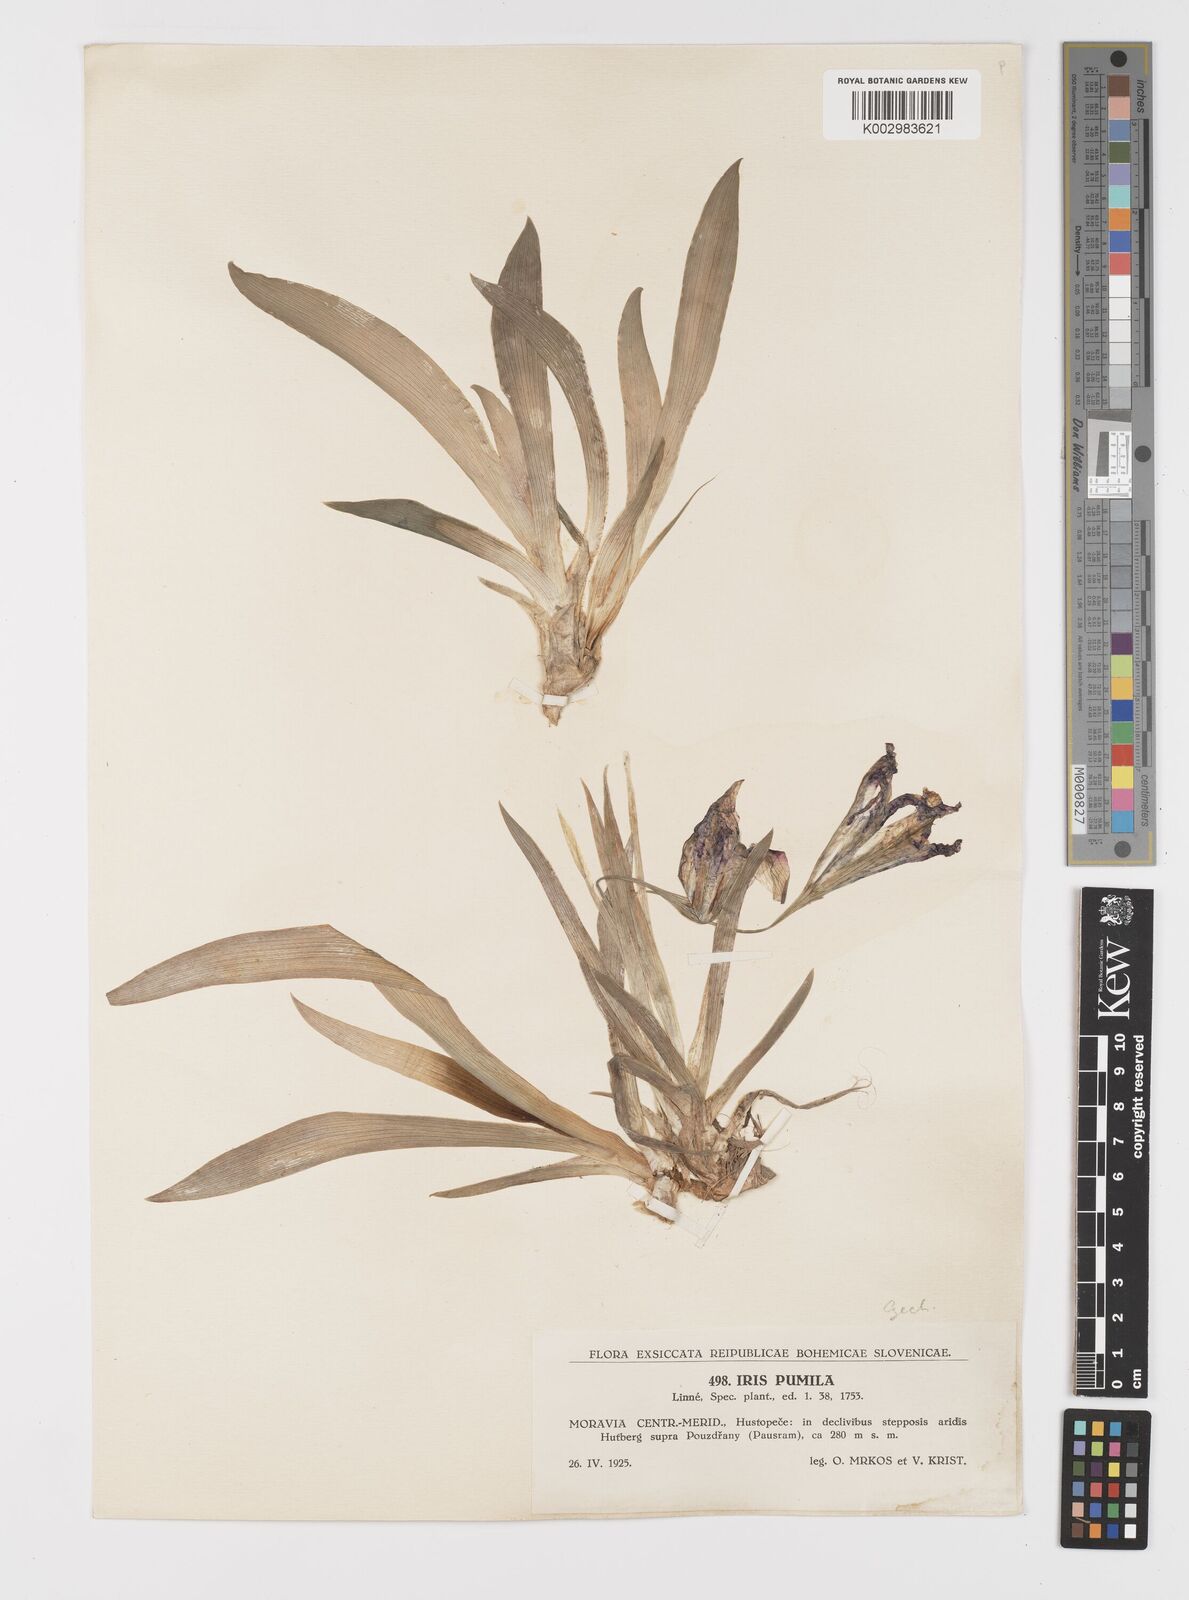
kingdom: Plantae
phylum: Tracheophyta
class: Liliopsida
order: Asparagales
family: Iridaceae
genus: Iris
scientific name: Iris pumila
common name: Dwarf iris
